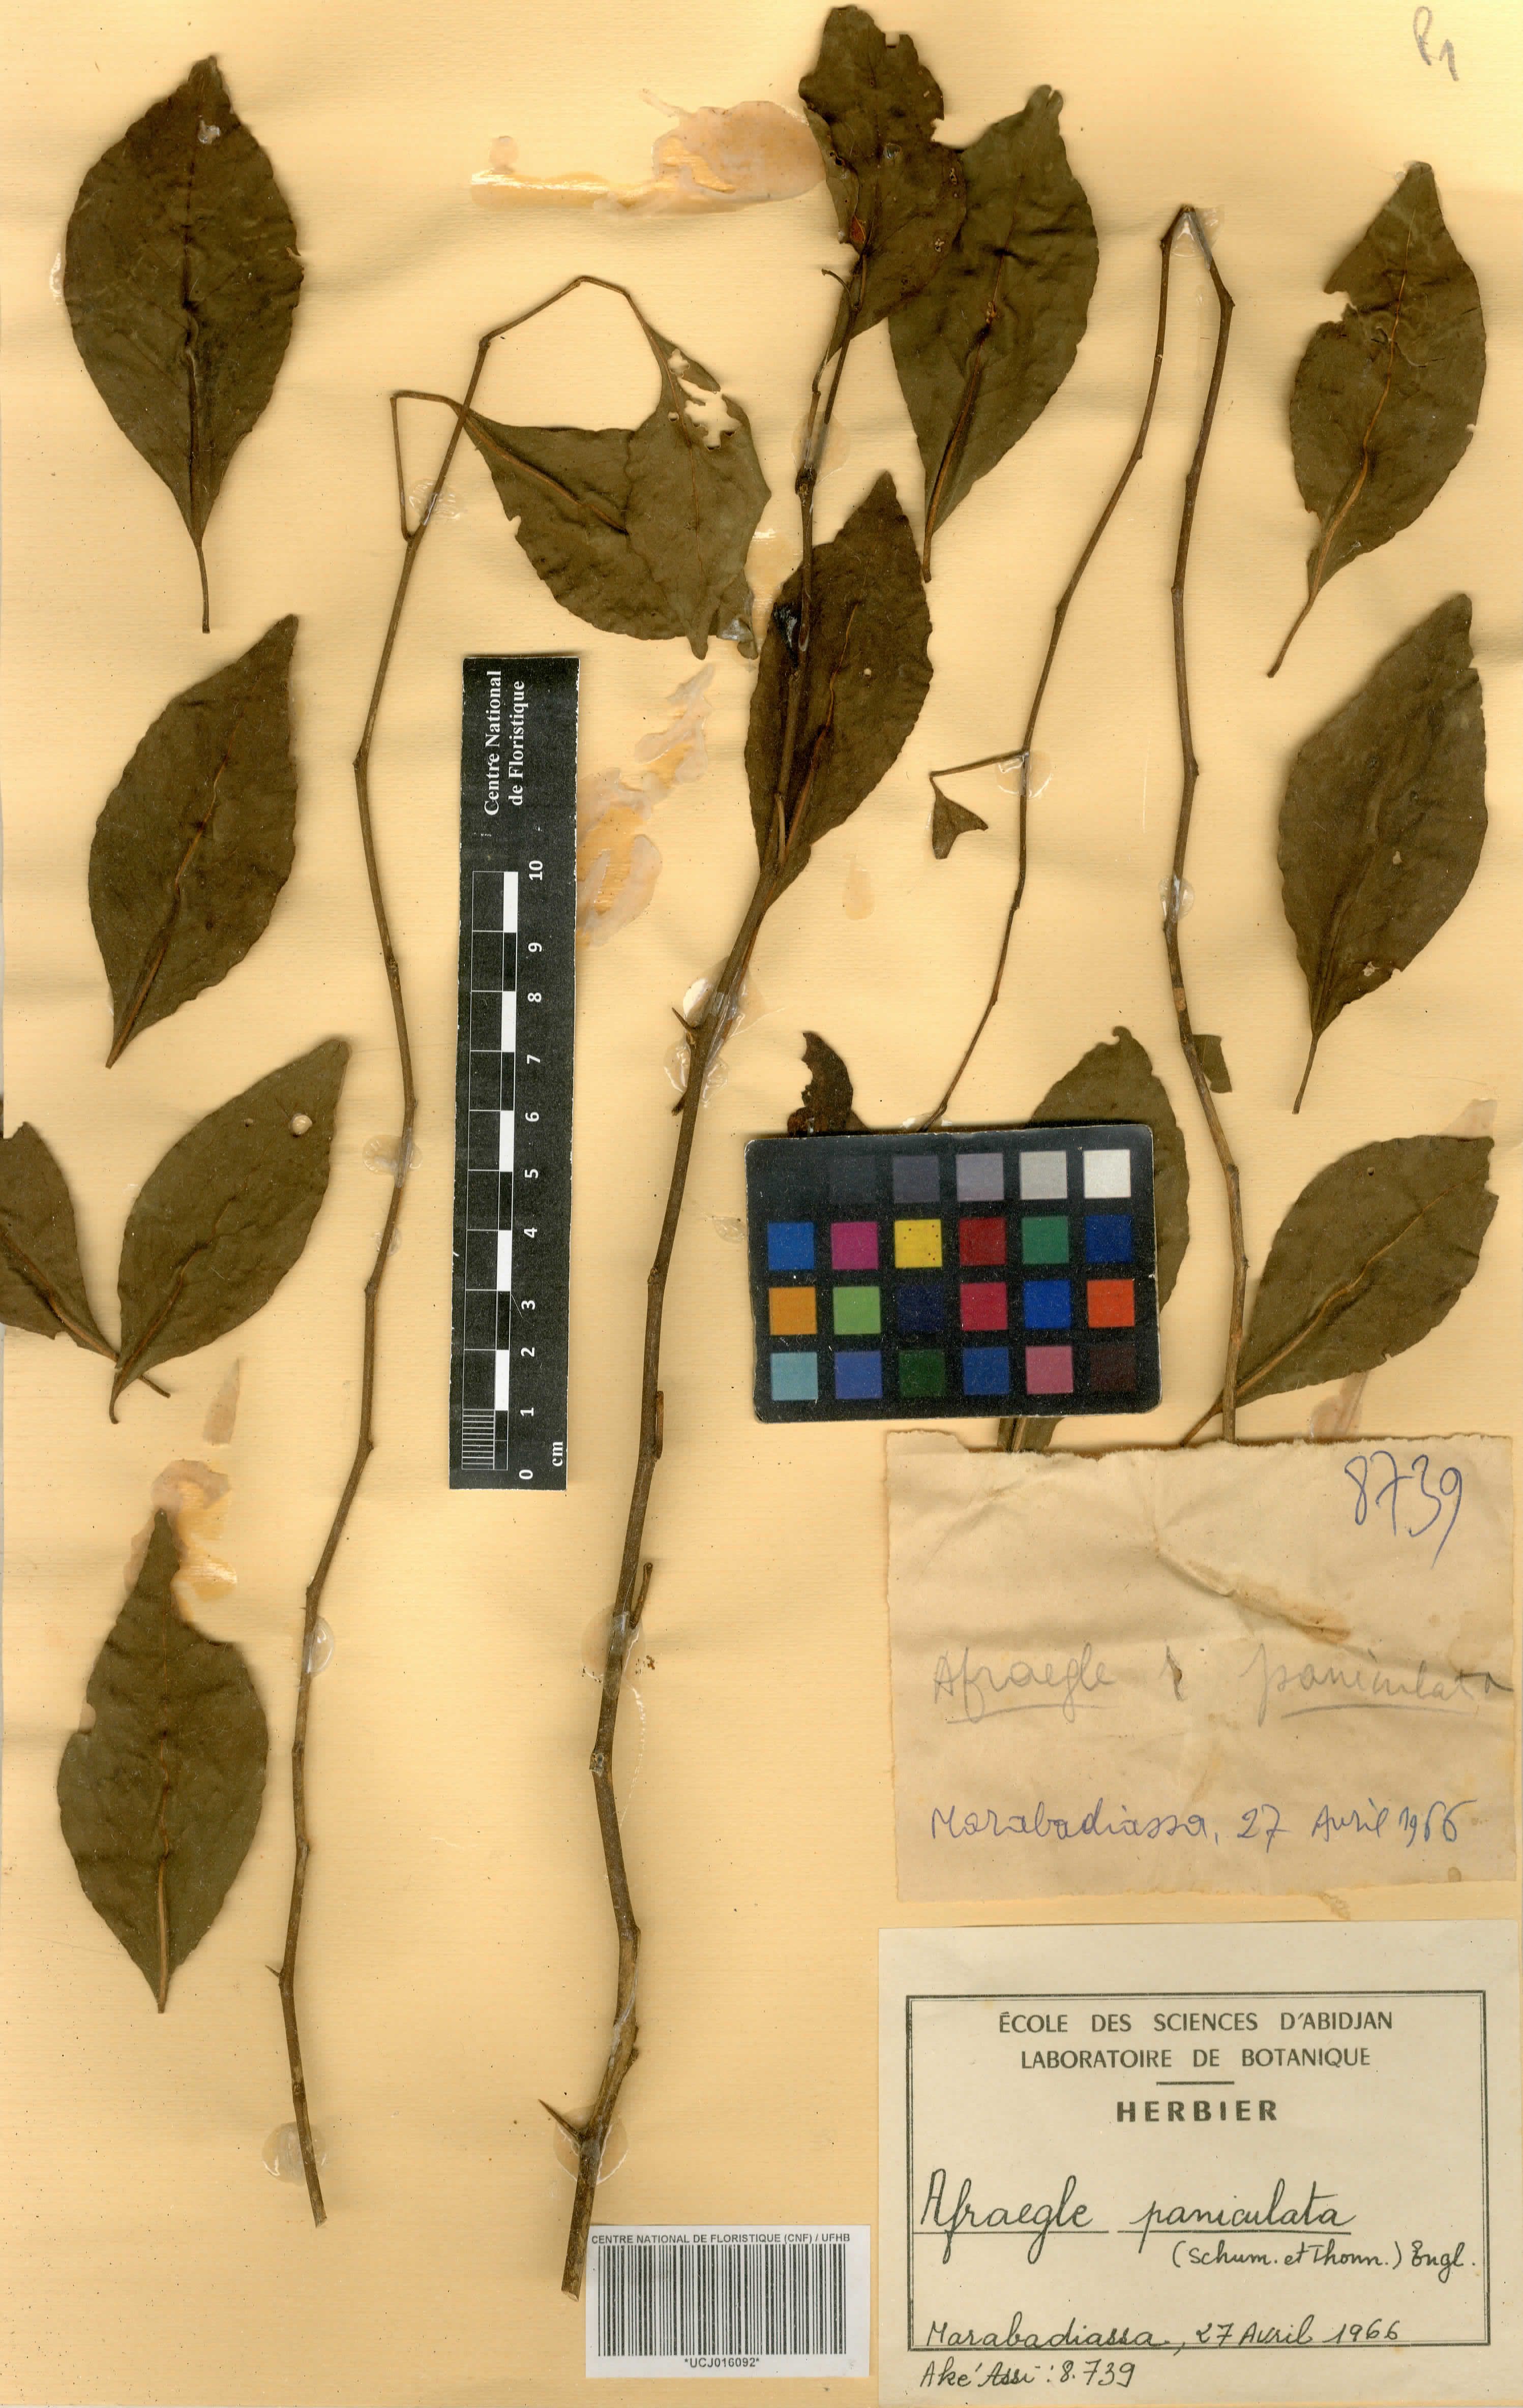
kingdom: Plantae
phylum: Tracheophyta
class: Magnoliopsida
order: Sapindales
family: Rutaceae
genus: Afraegle
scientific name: Afraegle paniculata
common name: Guin-guin
